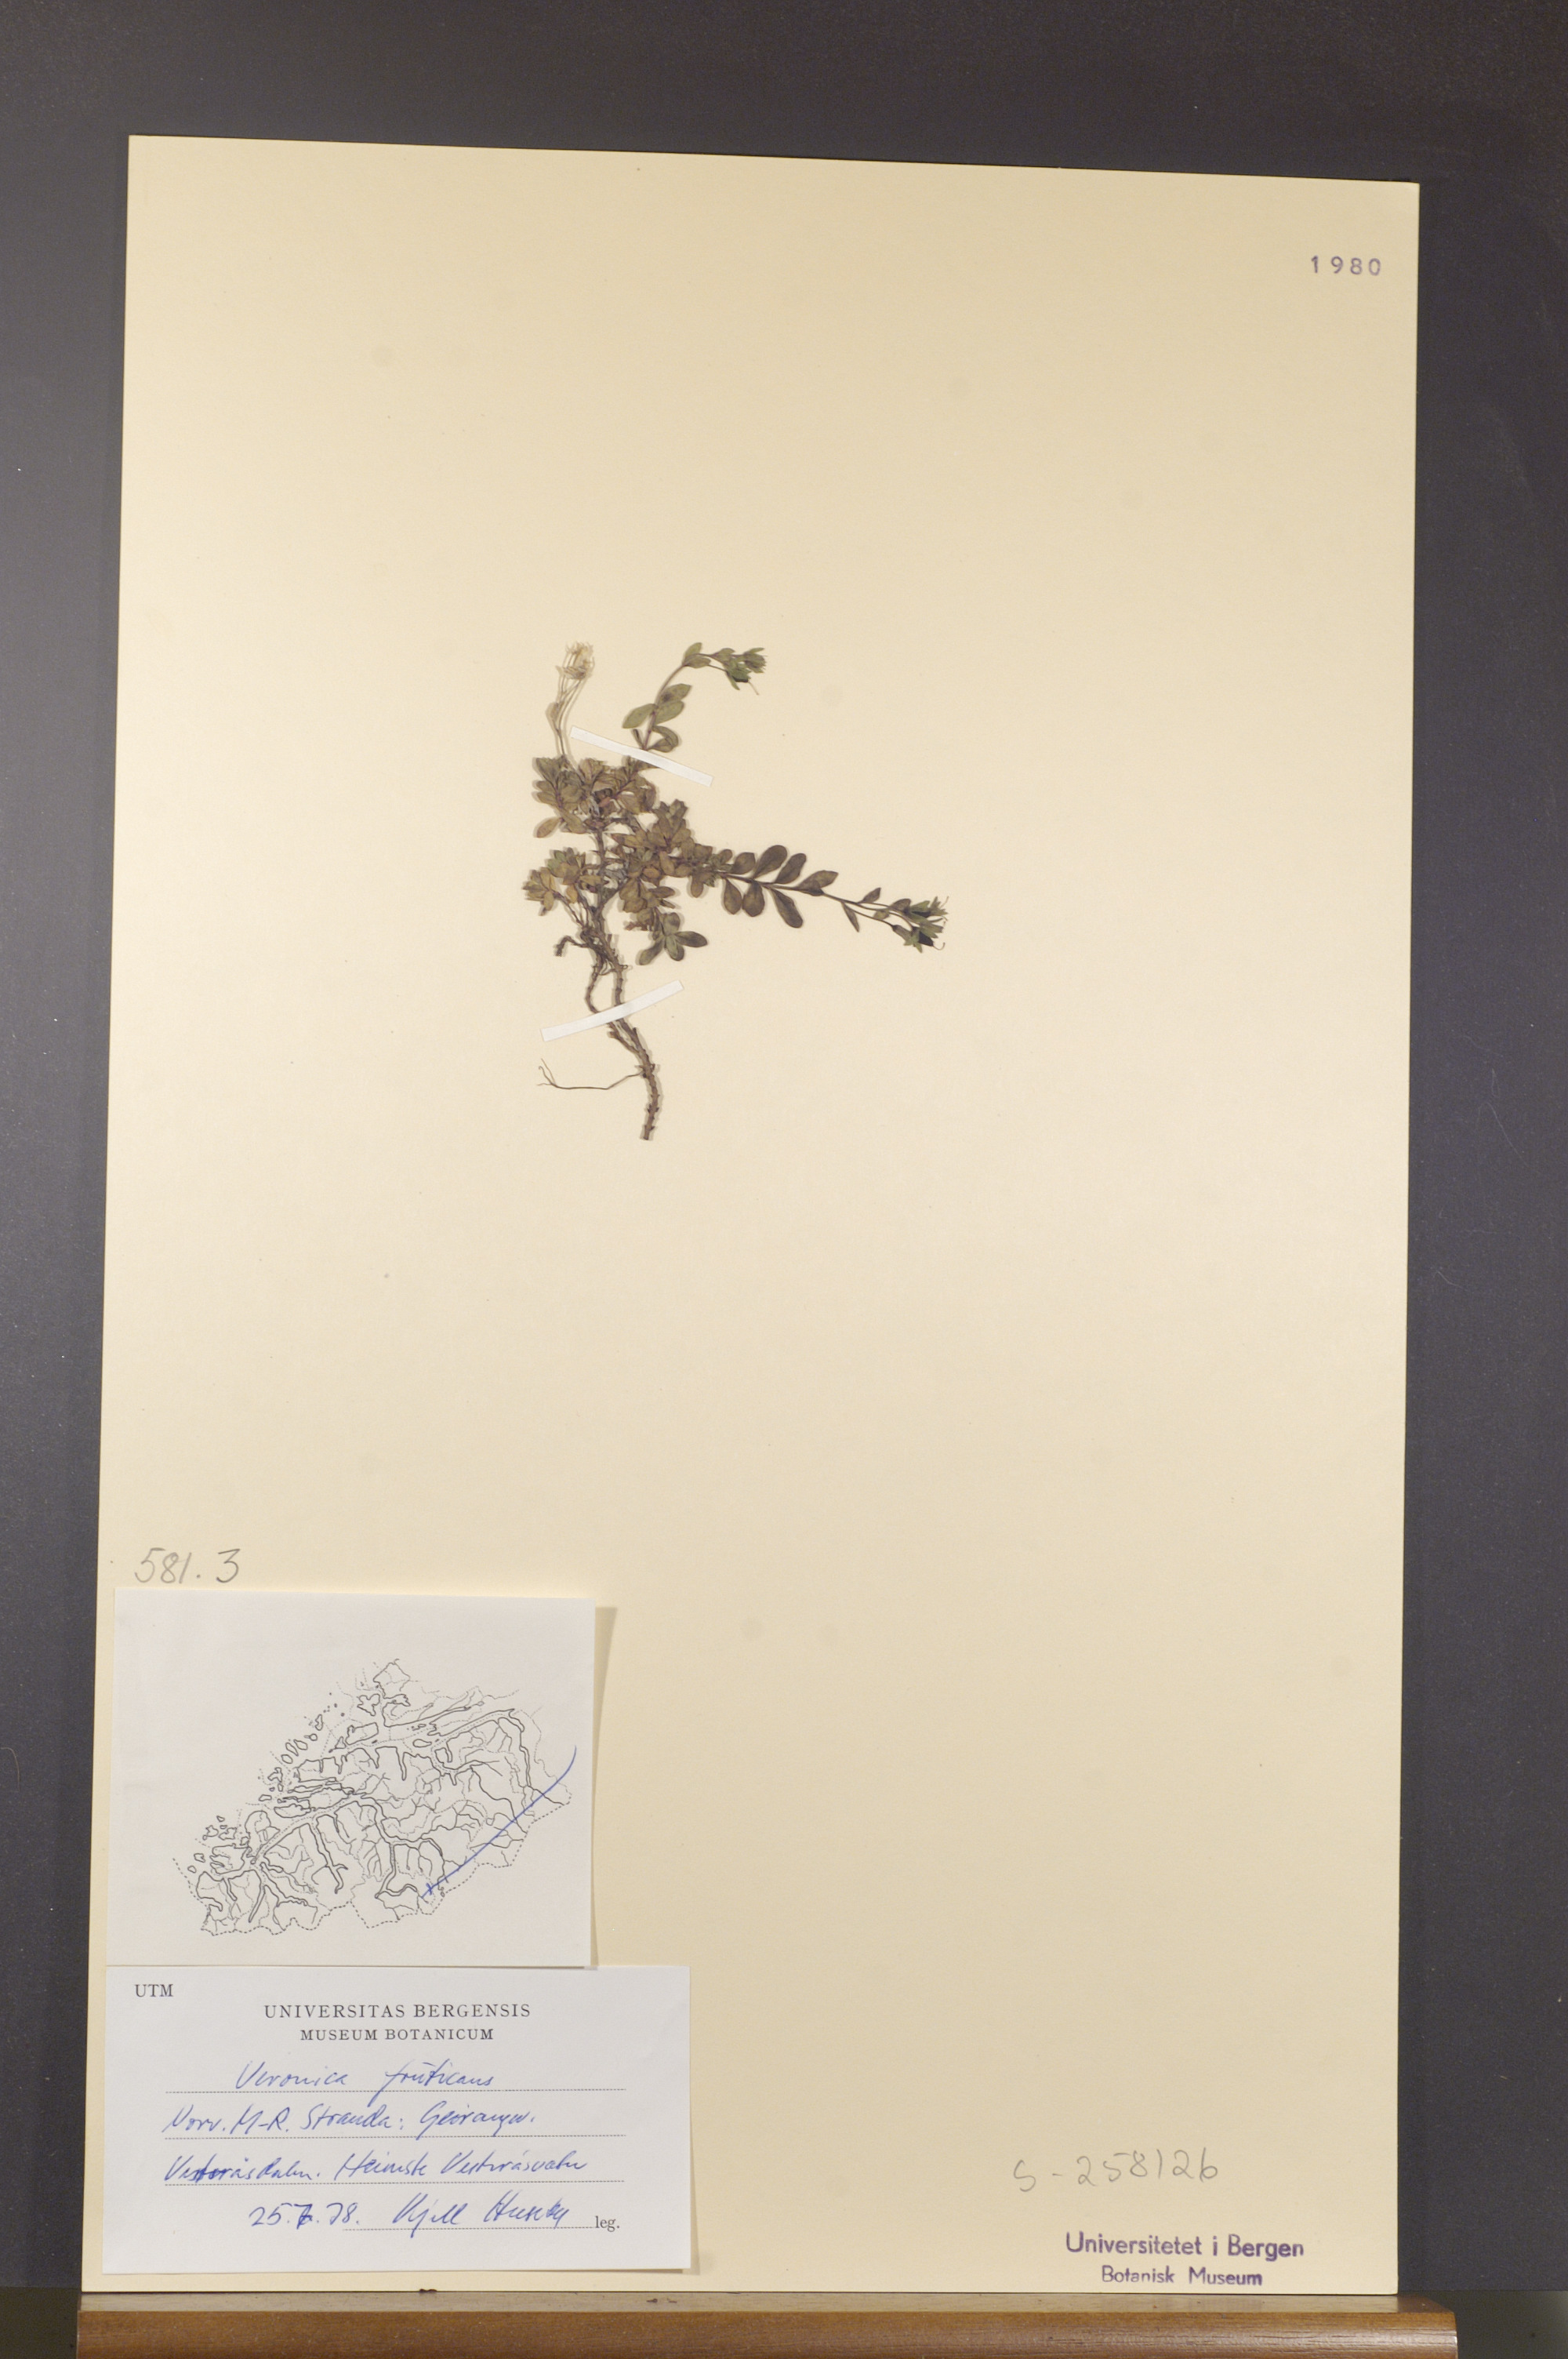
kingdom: Plantae
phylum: Tracheophyta
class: Magnoliopsida
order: Lamiales
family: Plantaginaceae
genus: Veronica
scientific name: Veronica fruticans
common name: Rock speedwell
